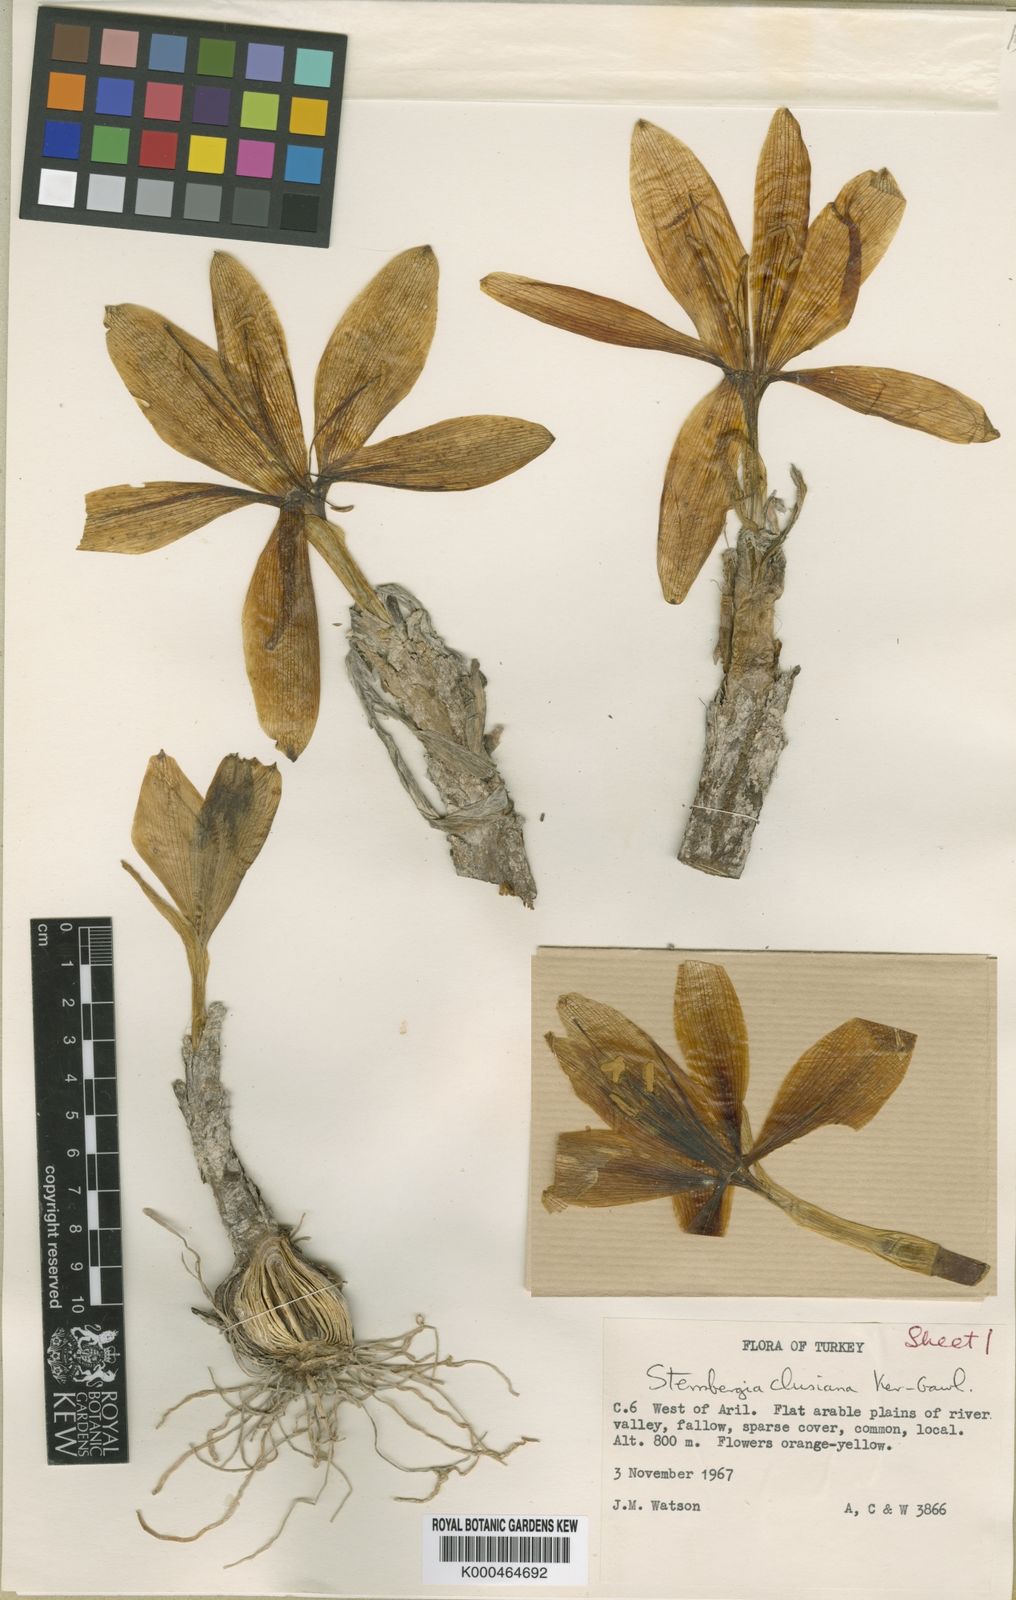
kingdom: Plantae
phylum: Tracheophyta
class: Liliopsida
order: Asparagales
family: Amaryllidaceae
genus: Sternbergia
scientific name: Sternbergia
